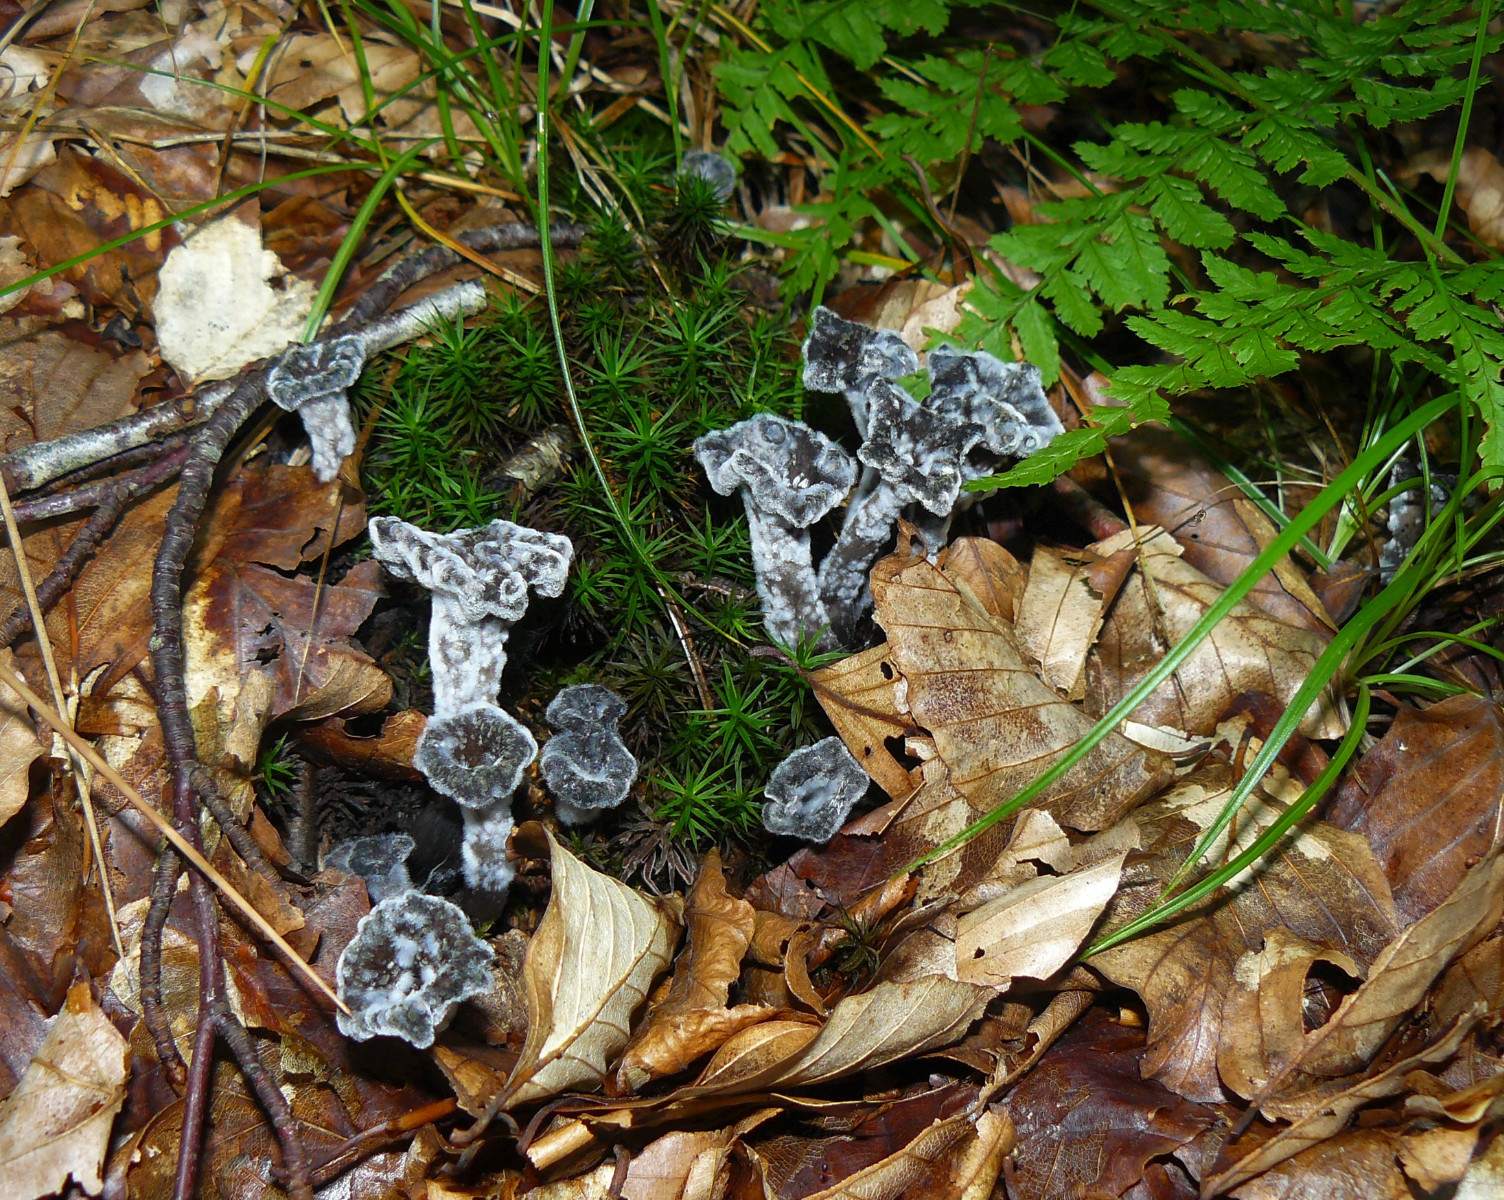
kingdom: Fungi
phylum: Basidiomycota
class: Agaricomycetes
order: Cantharellales
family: Hydnaceae
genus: Craterellus
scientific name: Craterellus cornucopioides
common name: trompetsvamp
